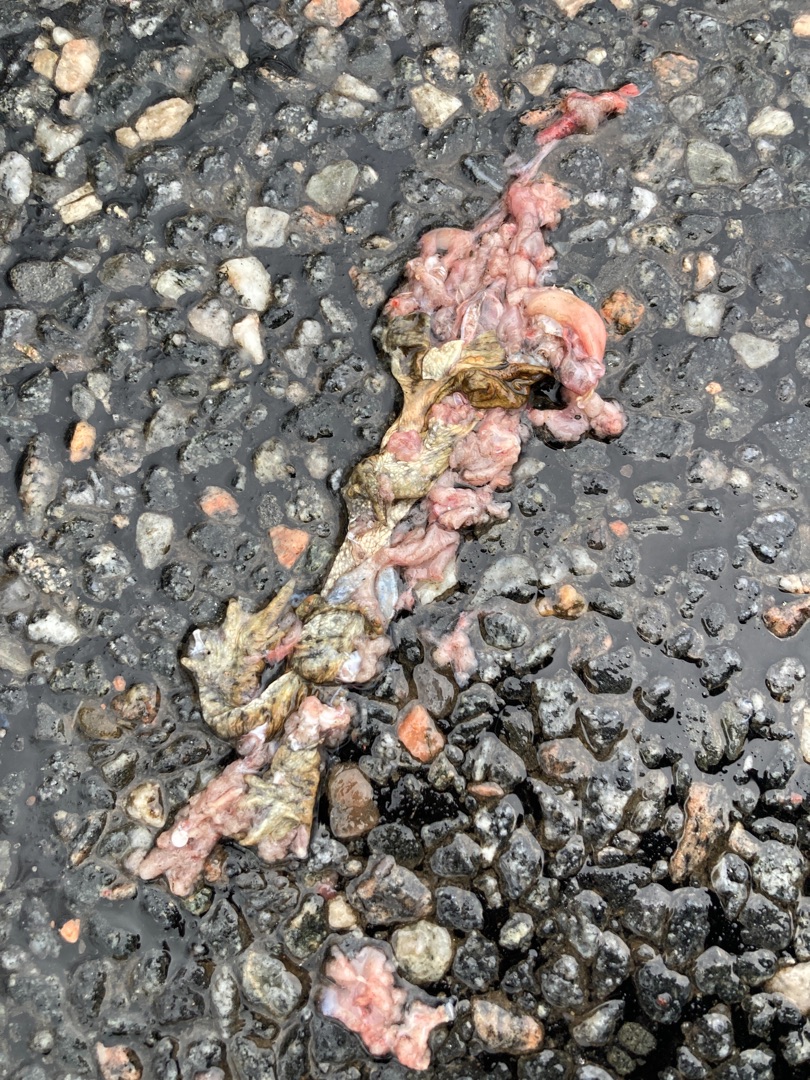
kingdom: Animalia
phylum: Chordata
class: Amphibia
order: Anura
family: Bufonidae
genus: Bufo
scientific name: Bufo bufo
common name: Skrubtudse
